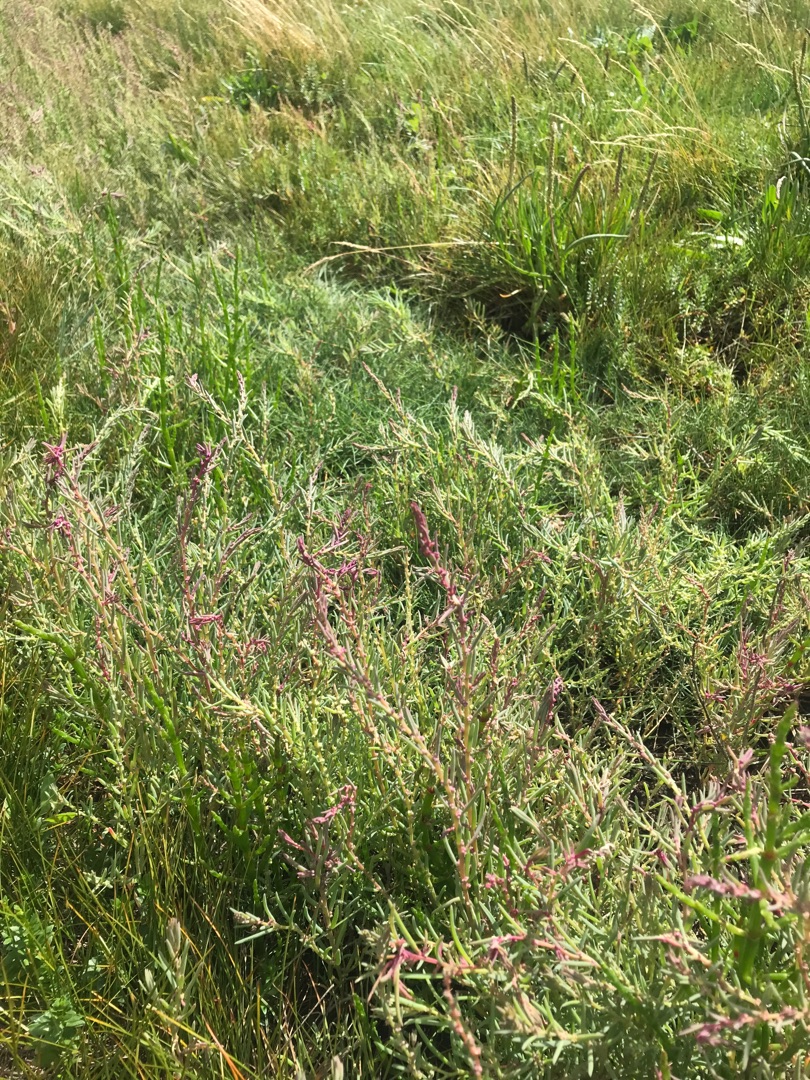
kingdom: Plantae
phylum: Tracheophyta
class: Magnoliopsida
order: Caryophyllales
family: Amaranthaceae
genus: Suaeda
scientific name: Suaeda maritima
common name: Strandgåsefod
